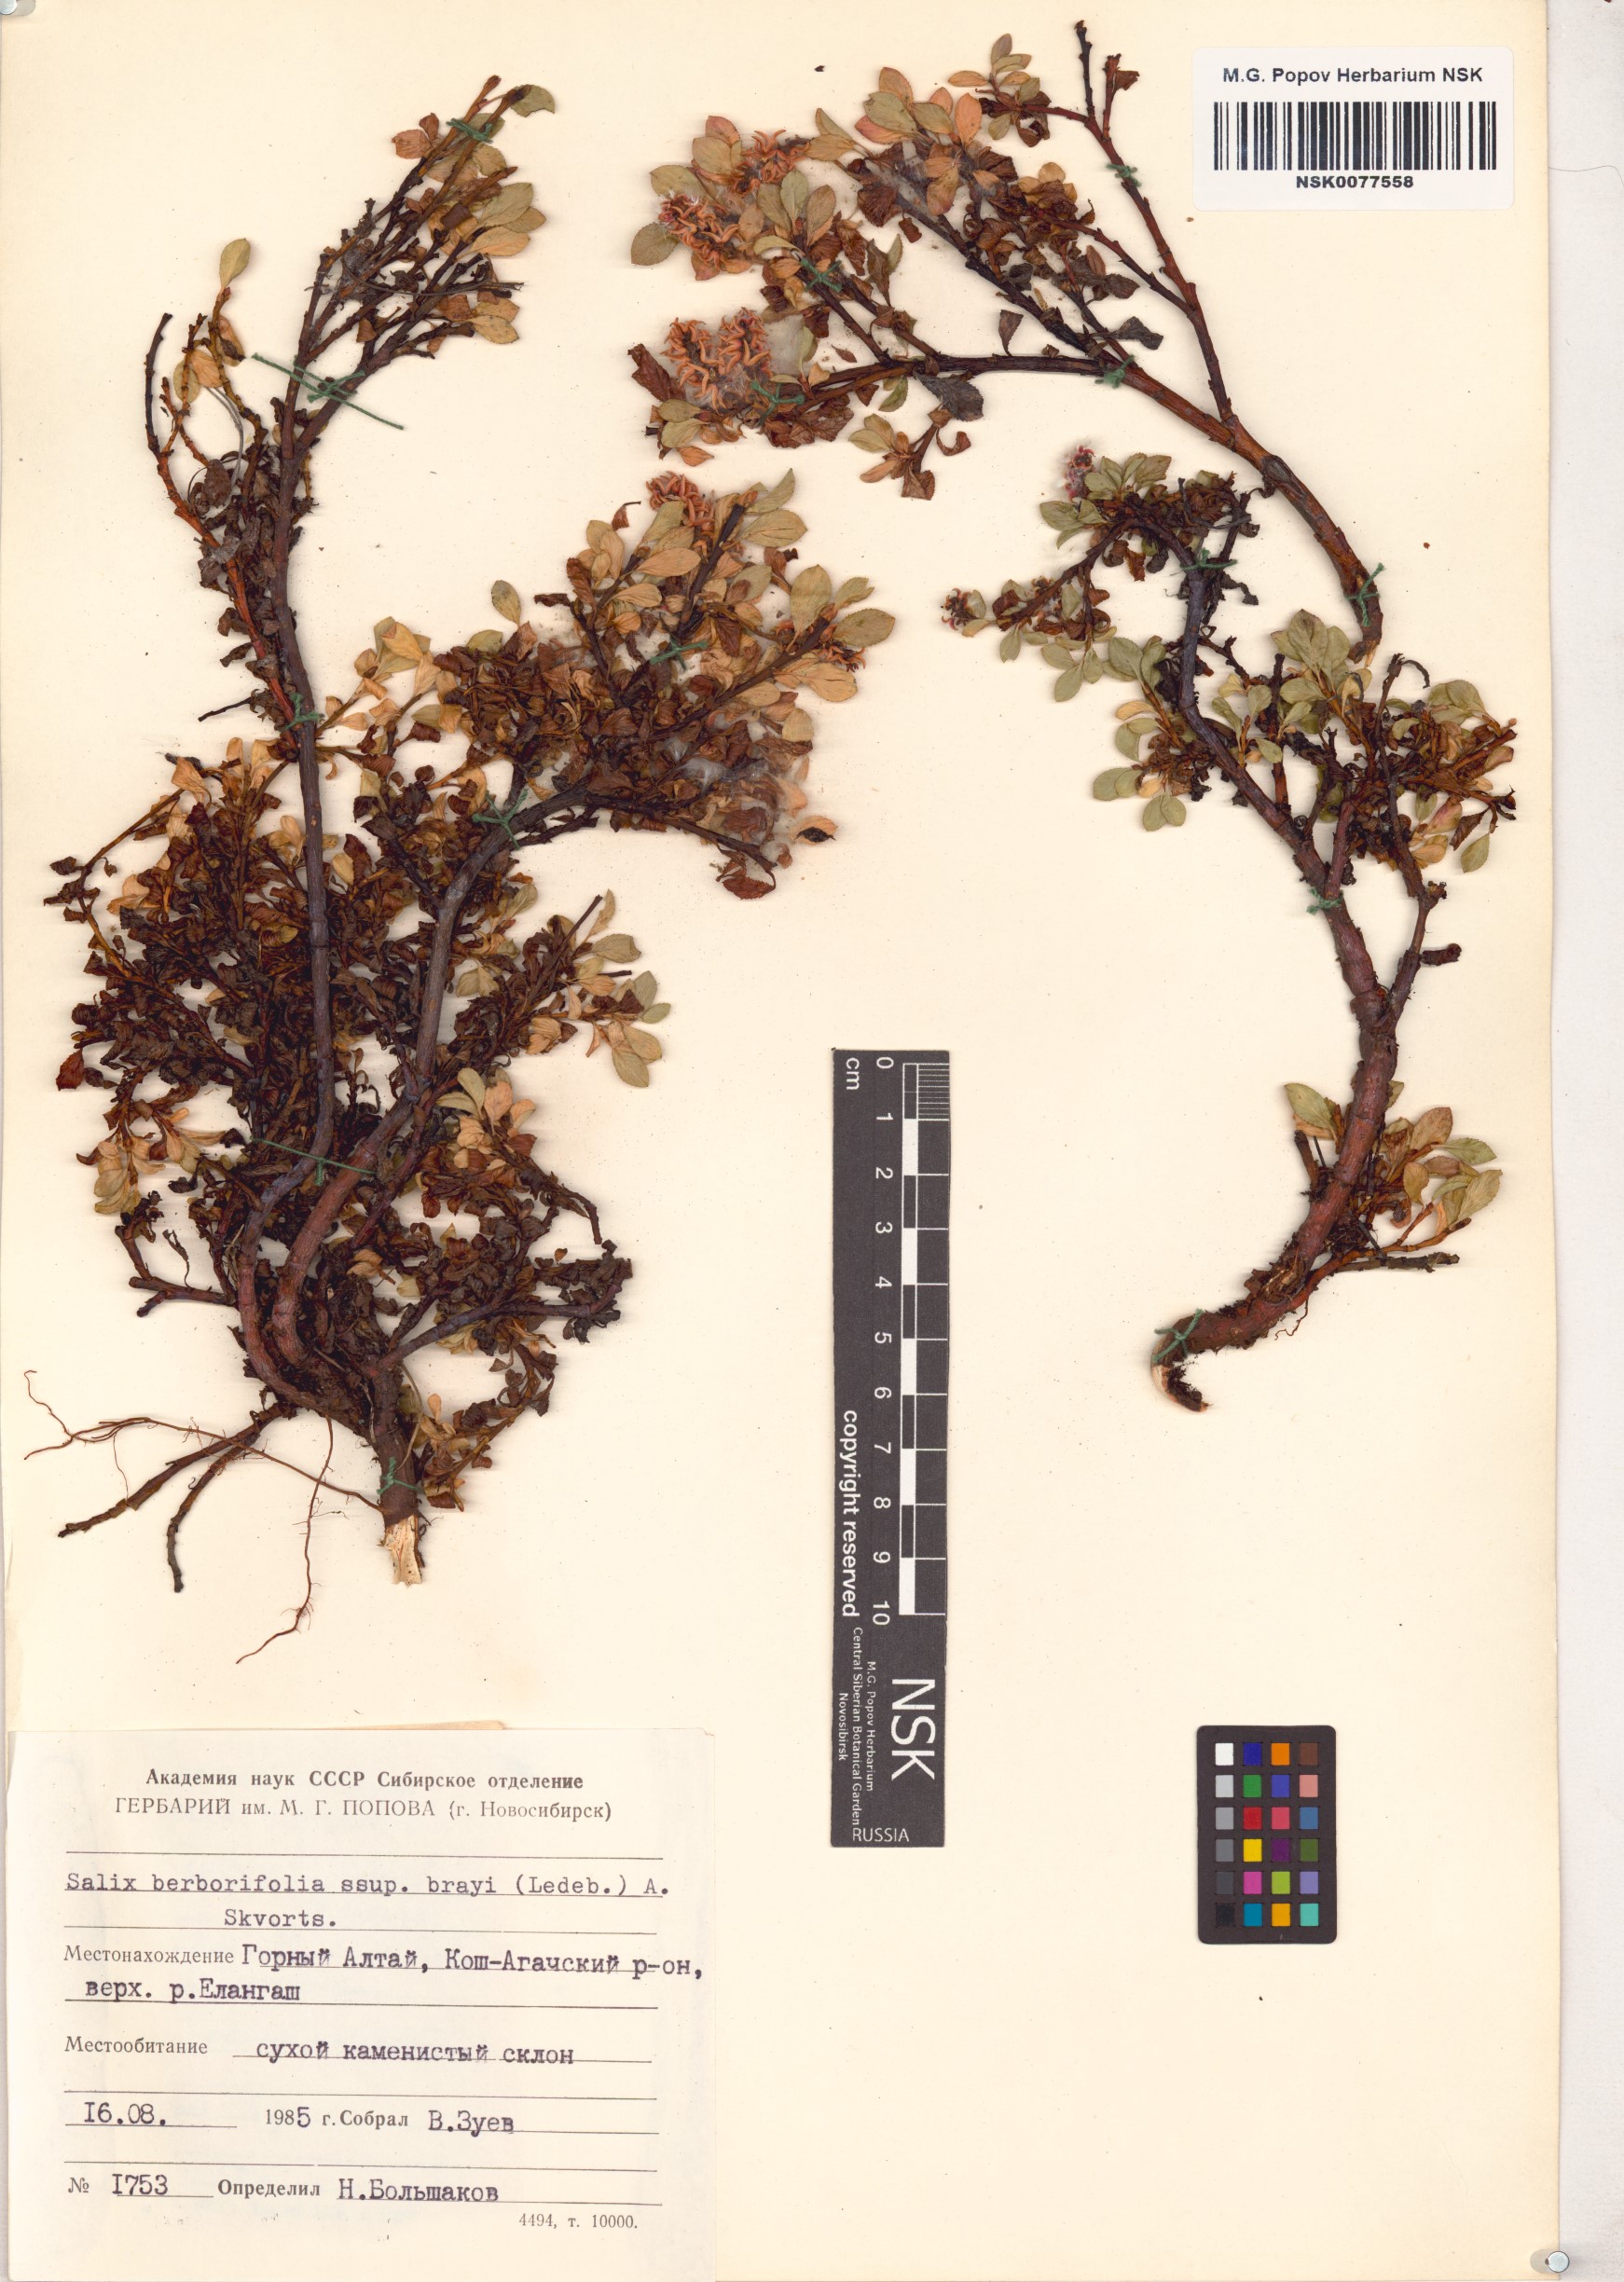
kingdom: Plantae
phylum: Tracheophyta
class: Magnoliopsida
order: Malpighiales
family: Salicaceae
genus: Salix
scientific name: Salix berberifolia
